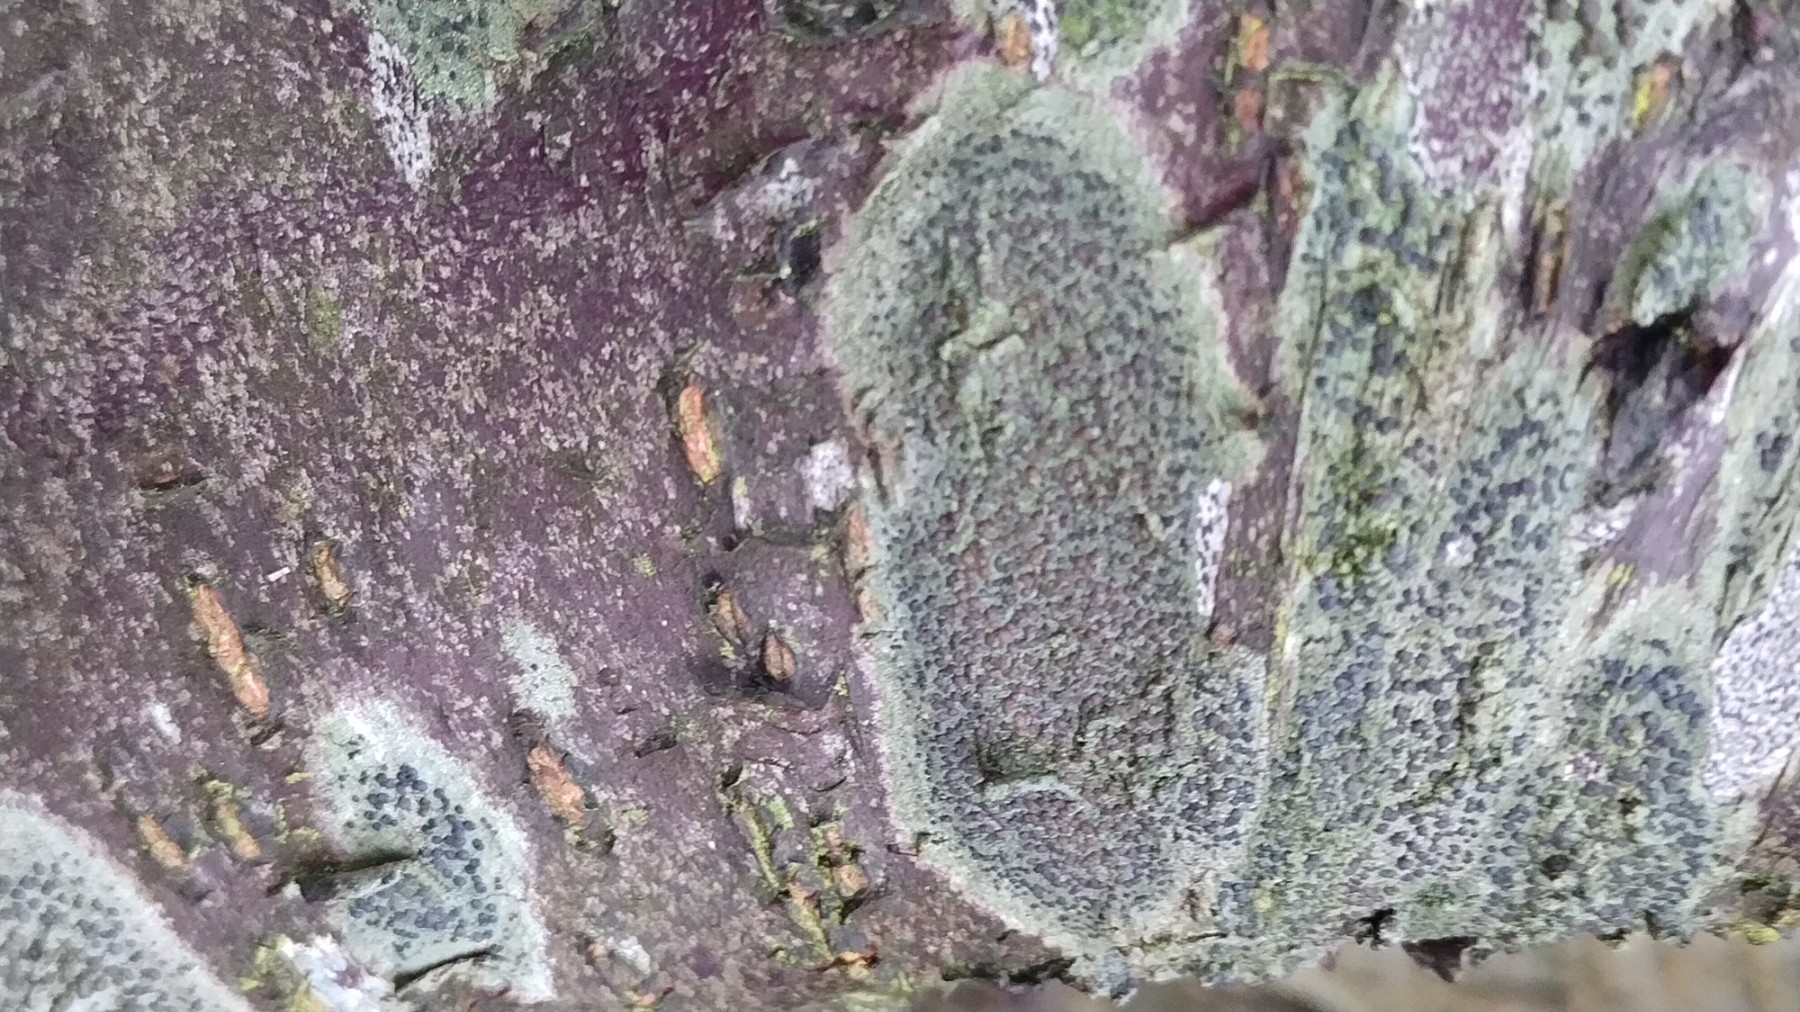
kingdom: Fungi
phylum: Ascomycota
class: Lecanoromycetes
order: Lecanorales
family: Lecanoraceae
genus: Lecidella
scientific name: Lecidella elaeochroma
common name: grågrøn skivelav
